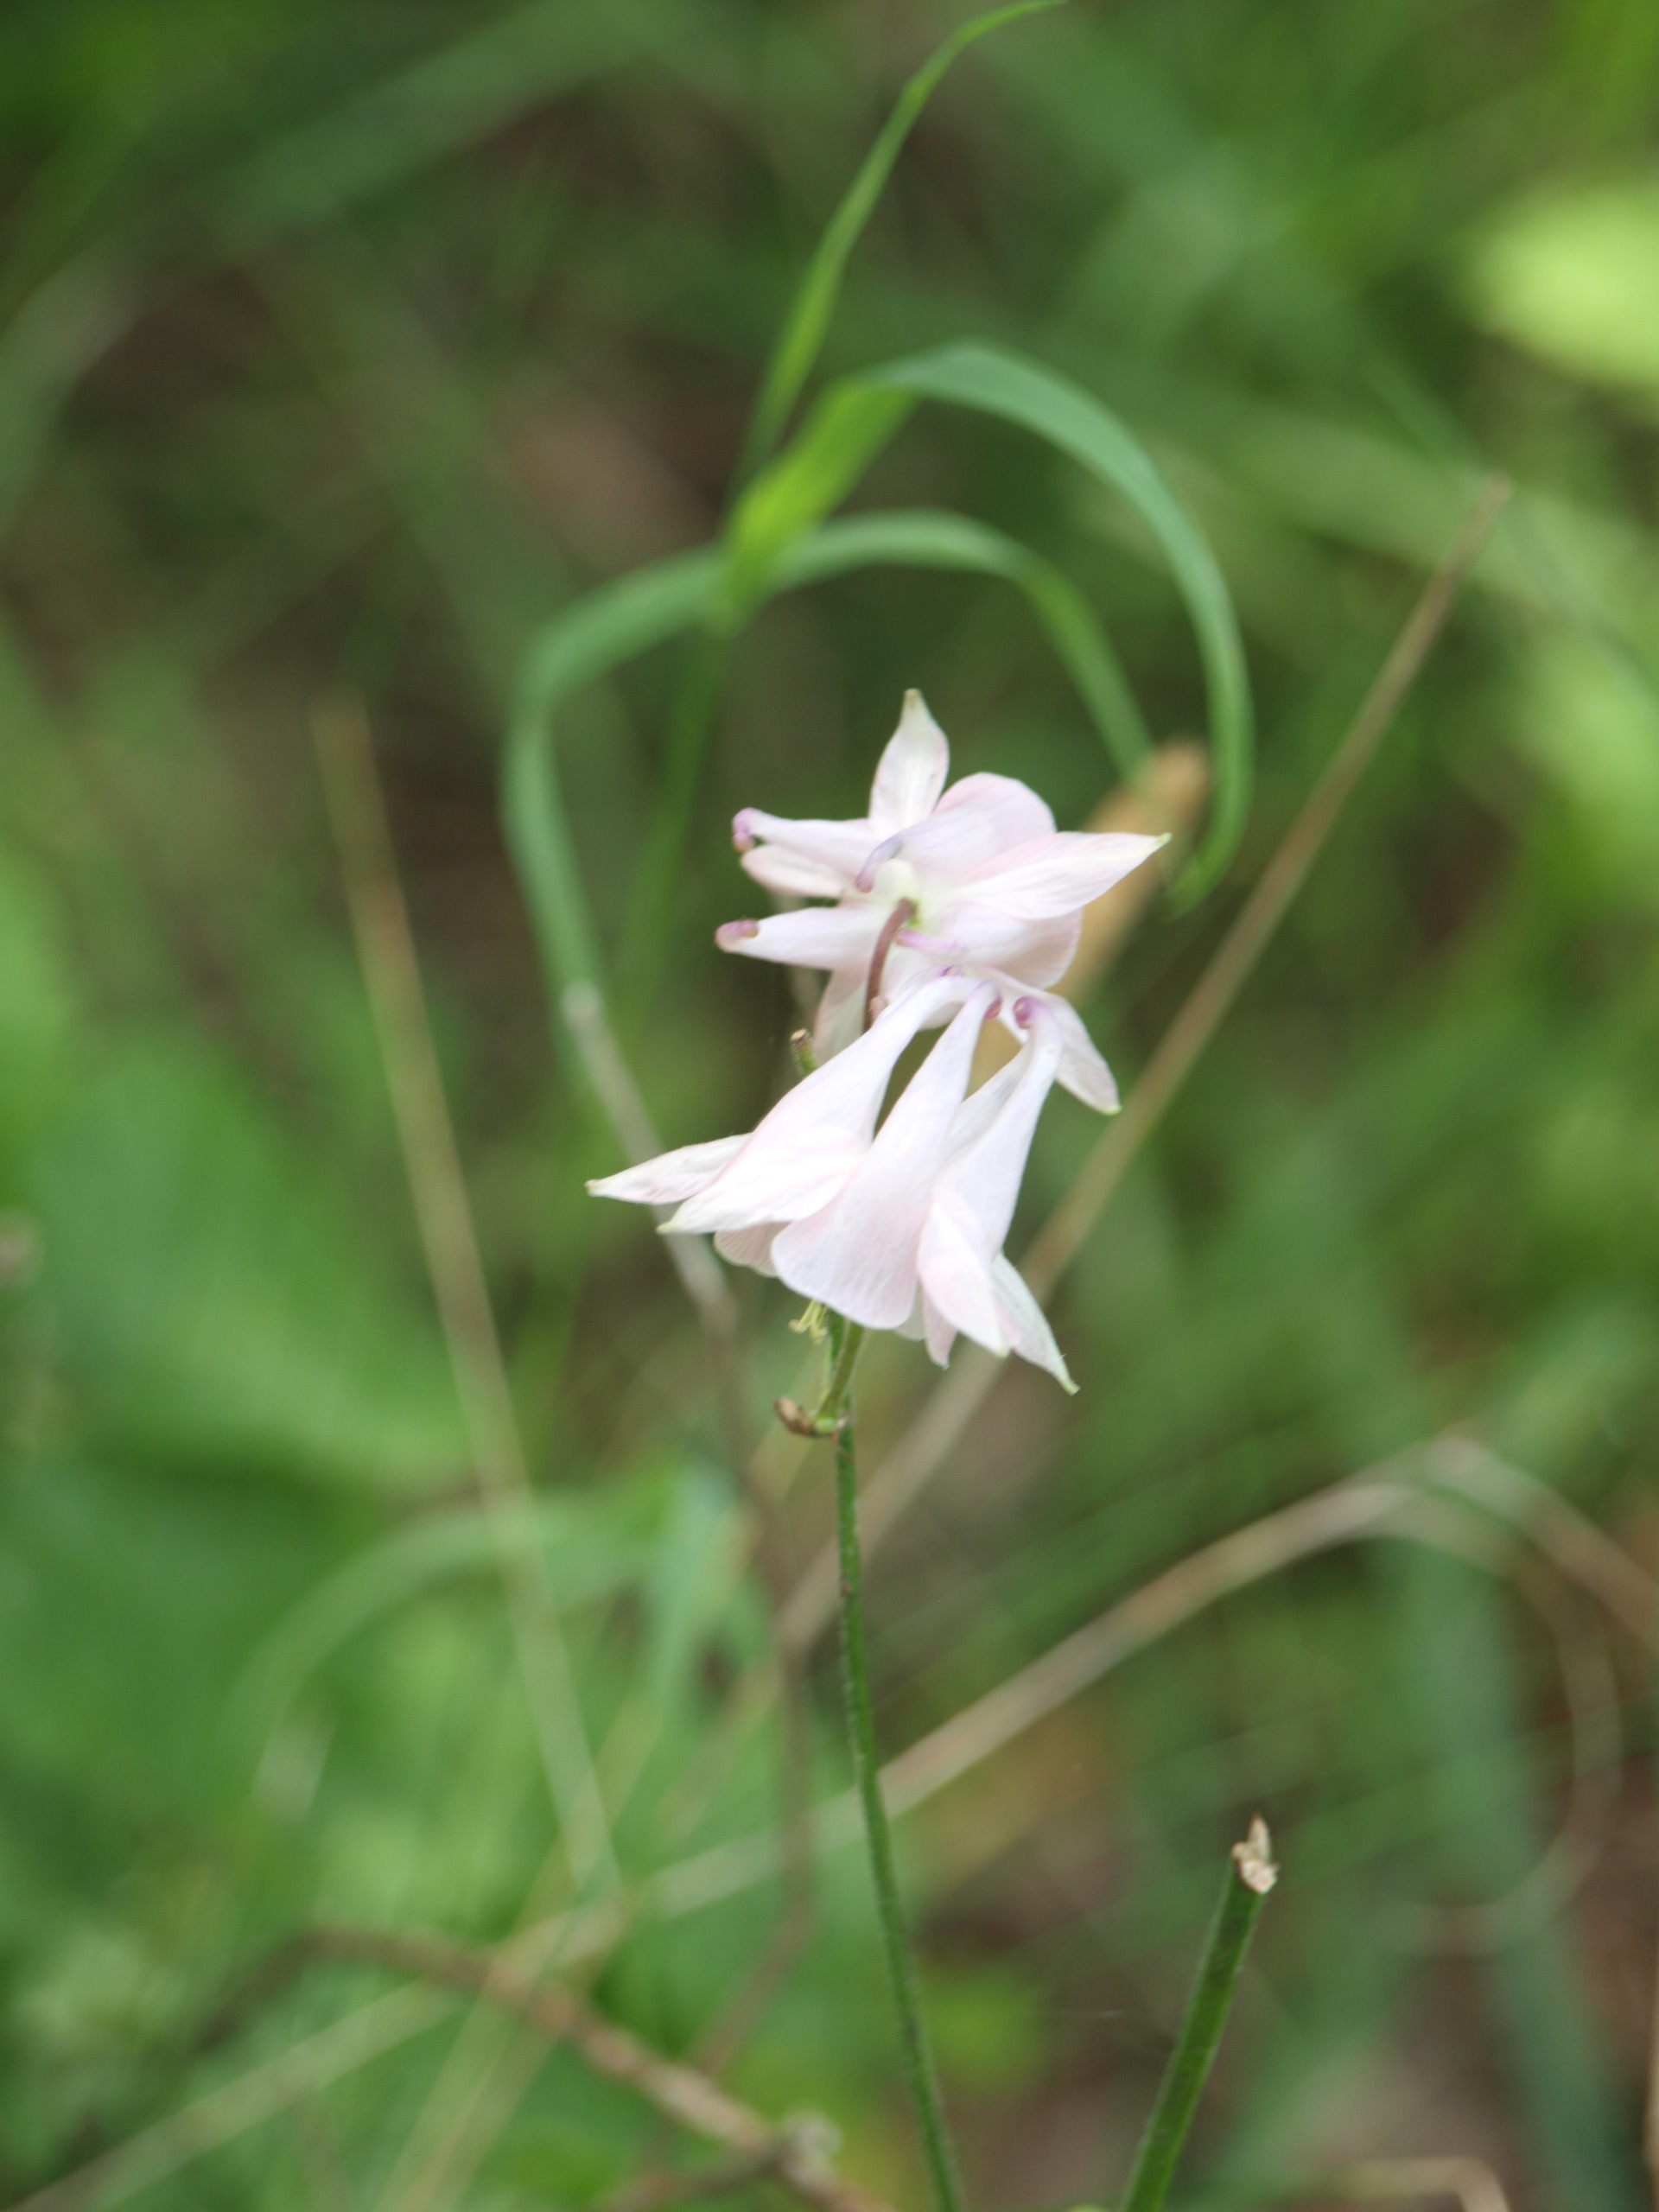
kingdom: Plantae
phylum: Tracheophyta
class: Magnoliopsida
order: Ranunculales
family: Ranunculaceae
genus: Aquilegia
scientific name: Aquilegia vulgaris
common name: Akeleje
